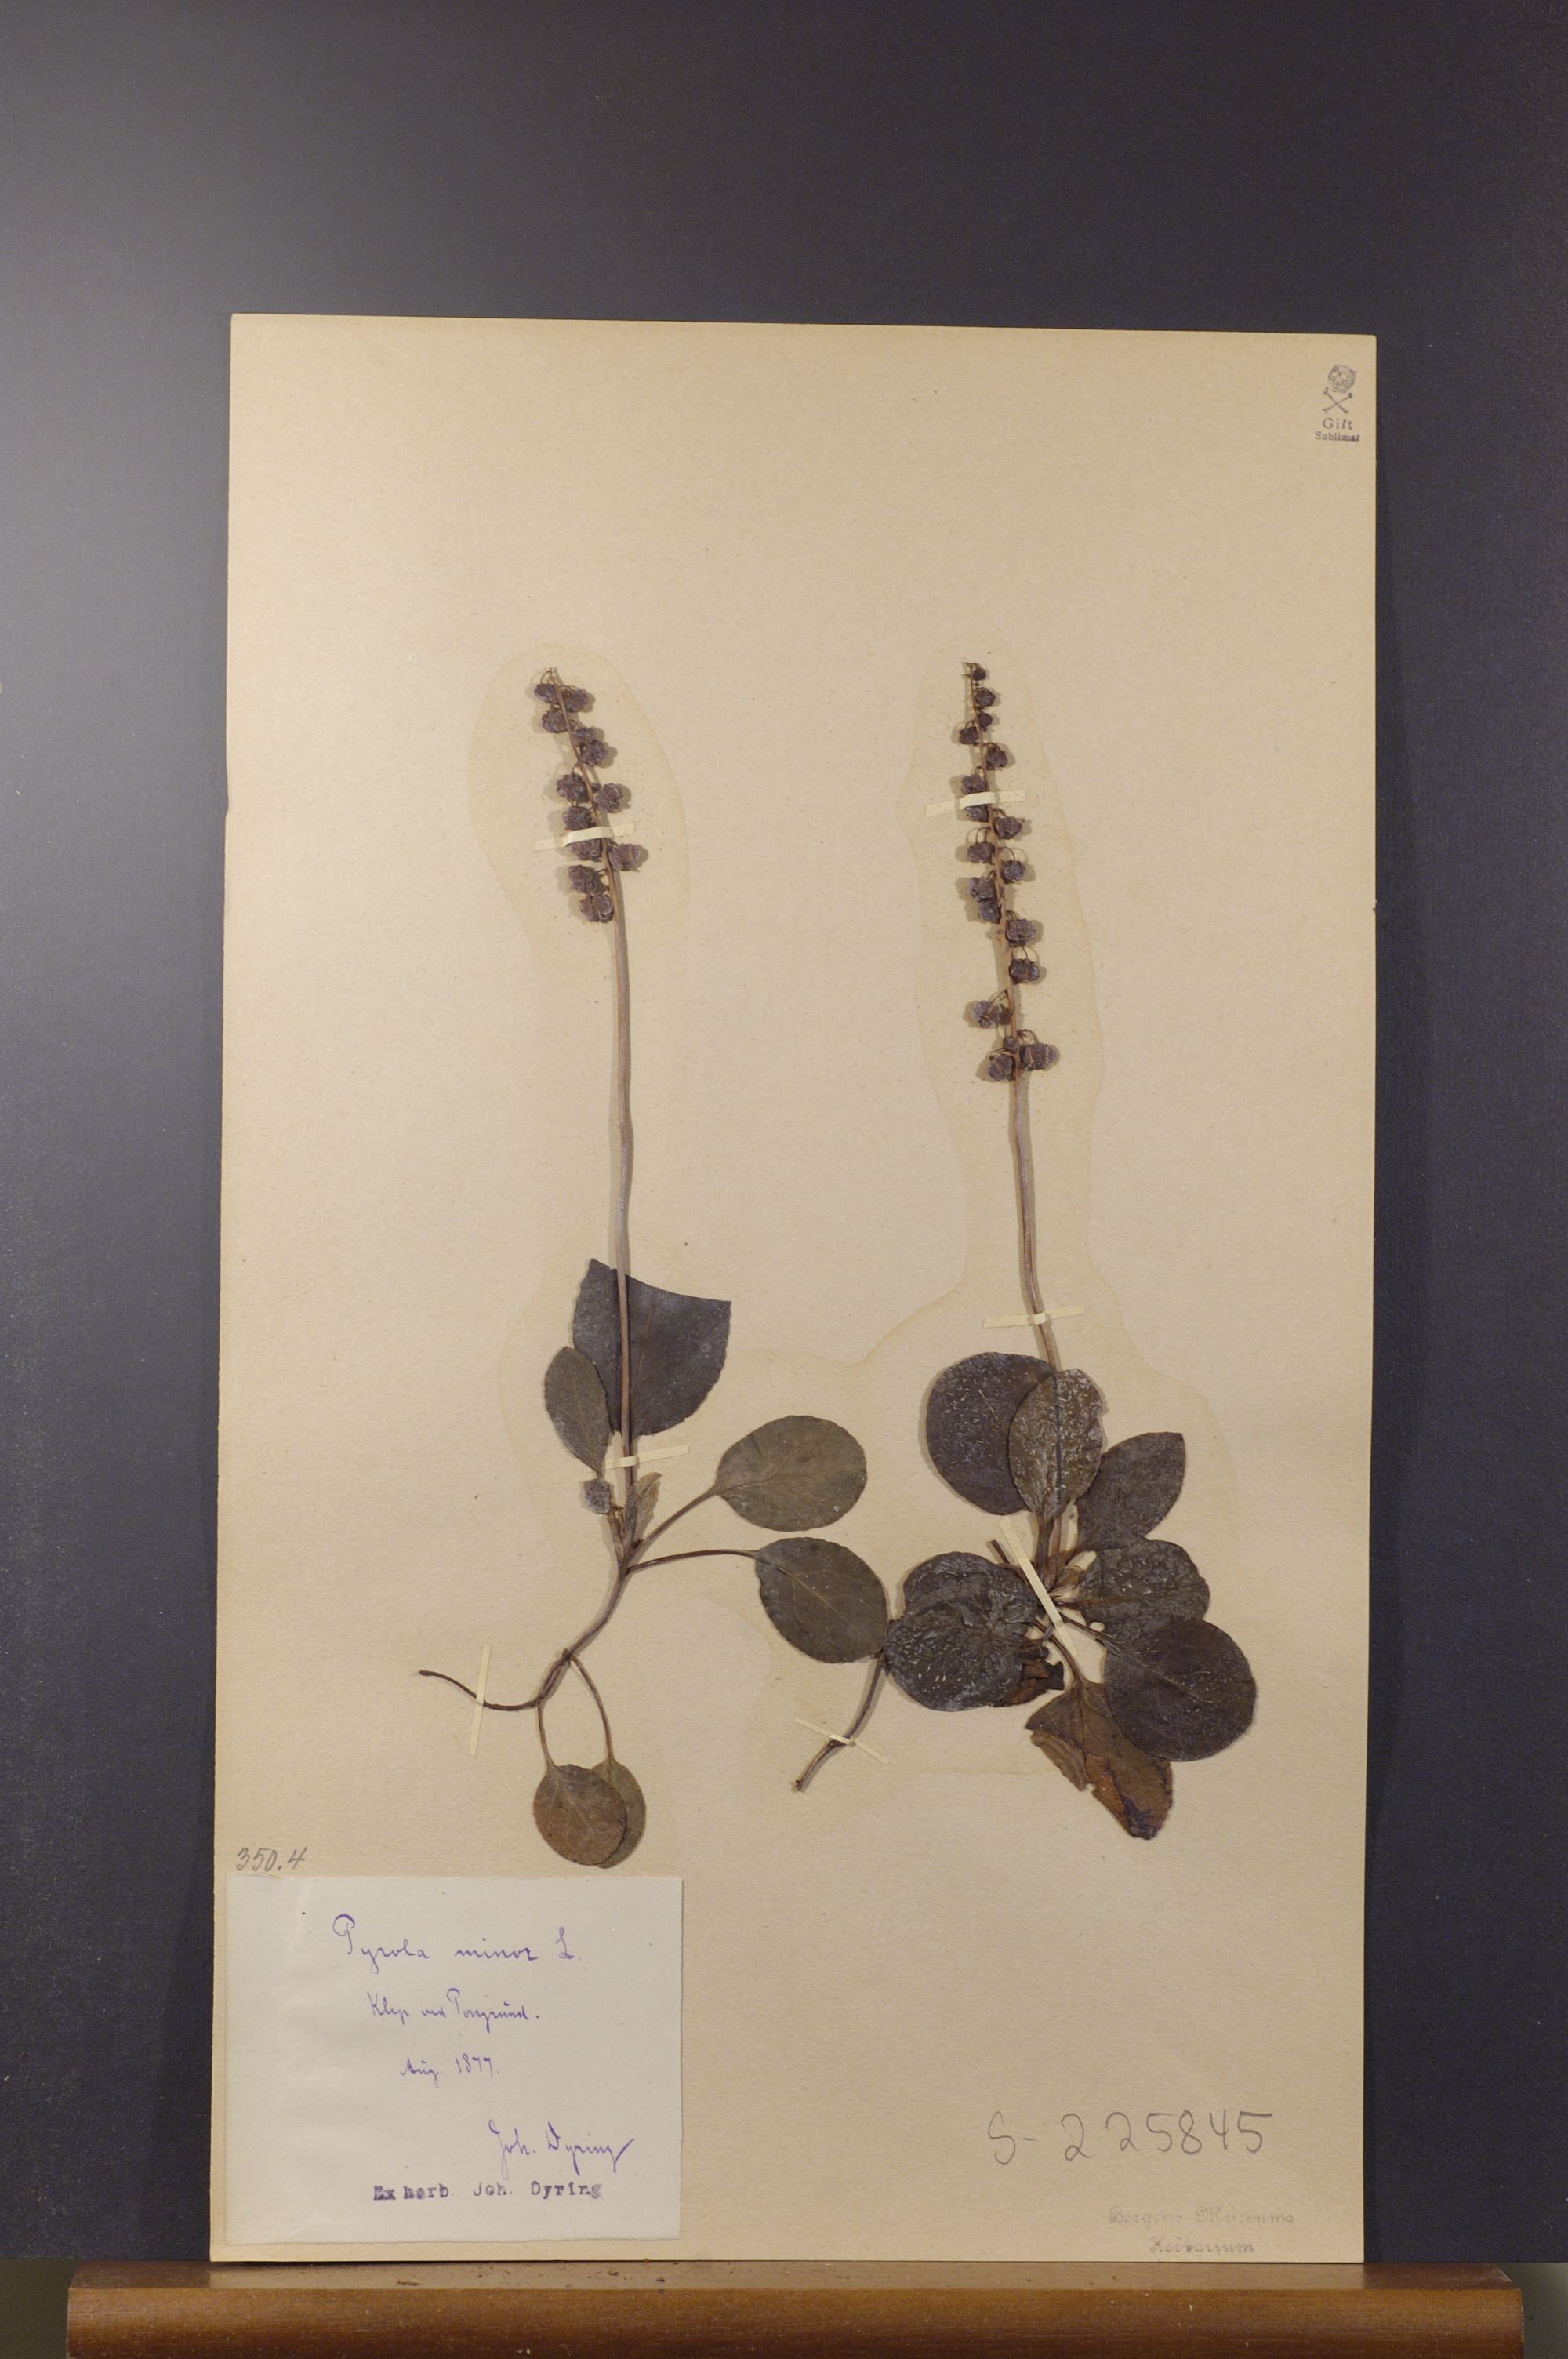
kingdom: Plantae
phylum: Tracheophyta
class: Magnoliopsida
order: Ericales
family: Ericaceae
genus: Pyrola
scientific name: Pyrola minor
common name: Common wintergreen
